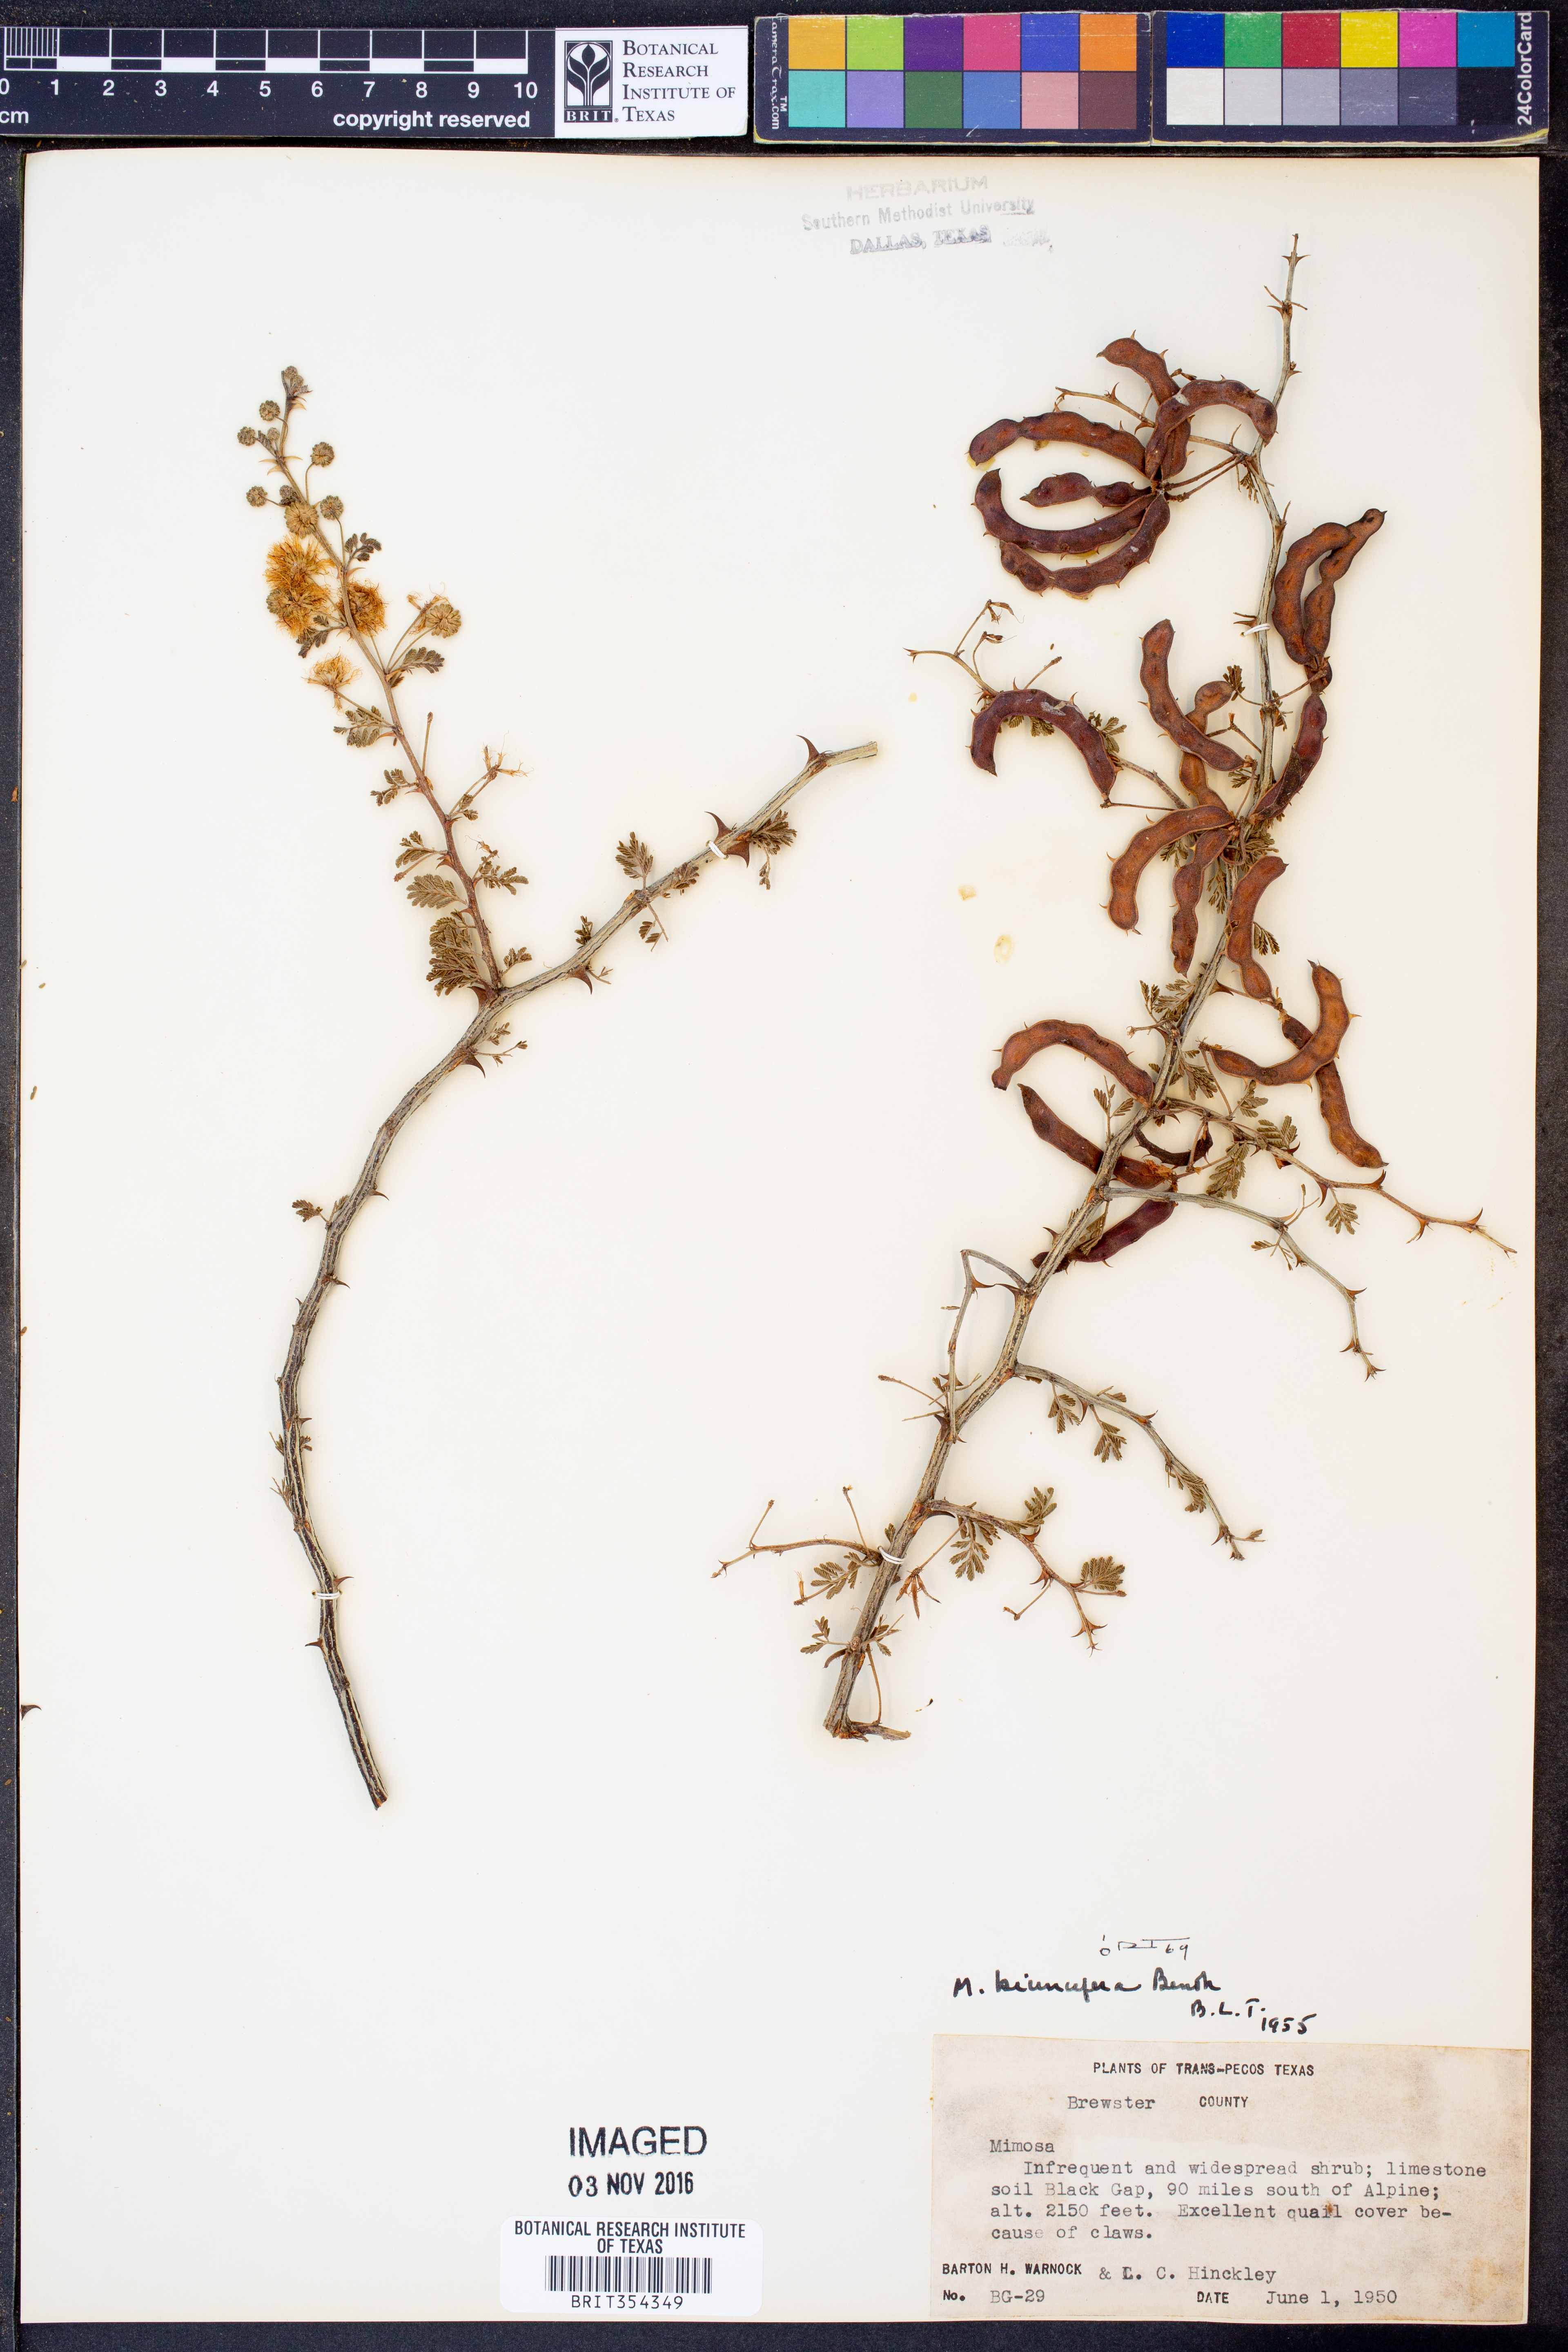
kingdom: Plantae
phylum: Tracheophyta
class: Magnoliopsida
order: Fabales
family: Fabaceae
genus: Mimosa
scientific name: Mimosa biuncifera
